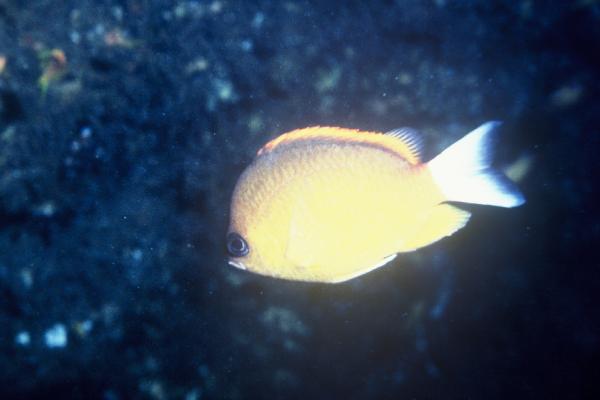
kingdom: Animalia
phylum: Chordata
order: Perciformes
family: Pomacentridae
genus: Chromis
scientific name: Chromis analis
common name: Yellow chromis
